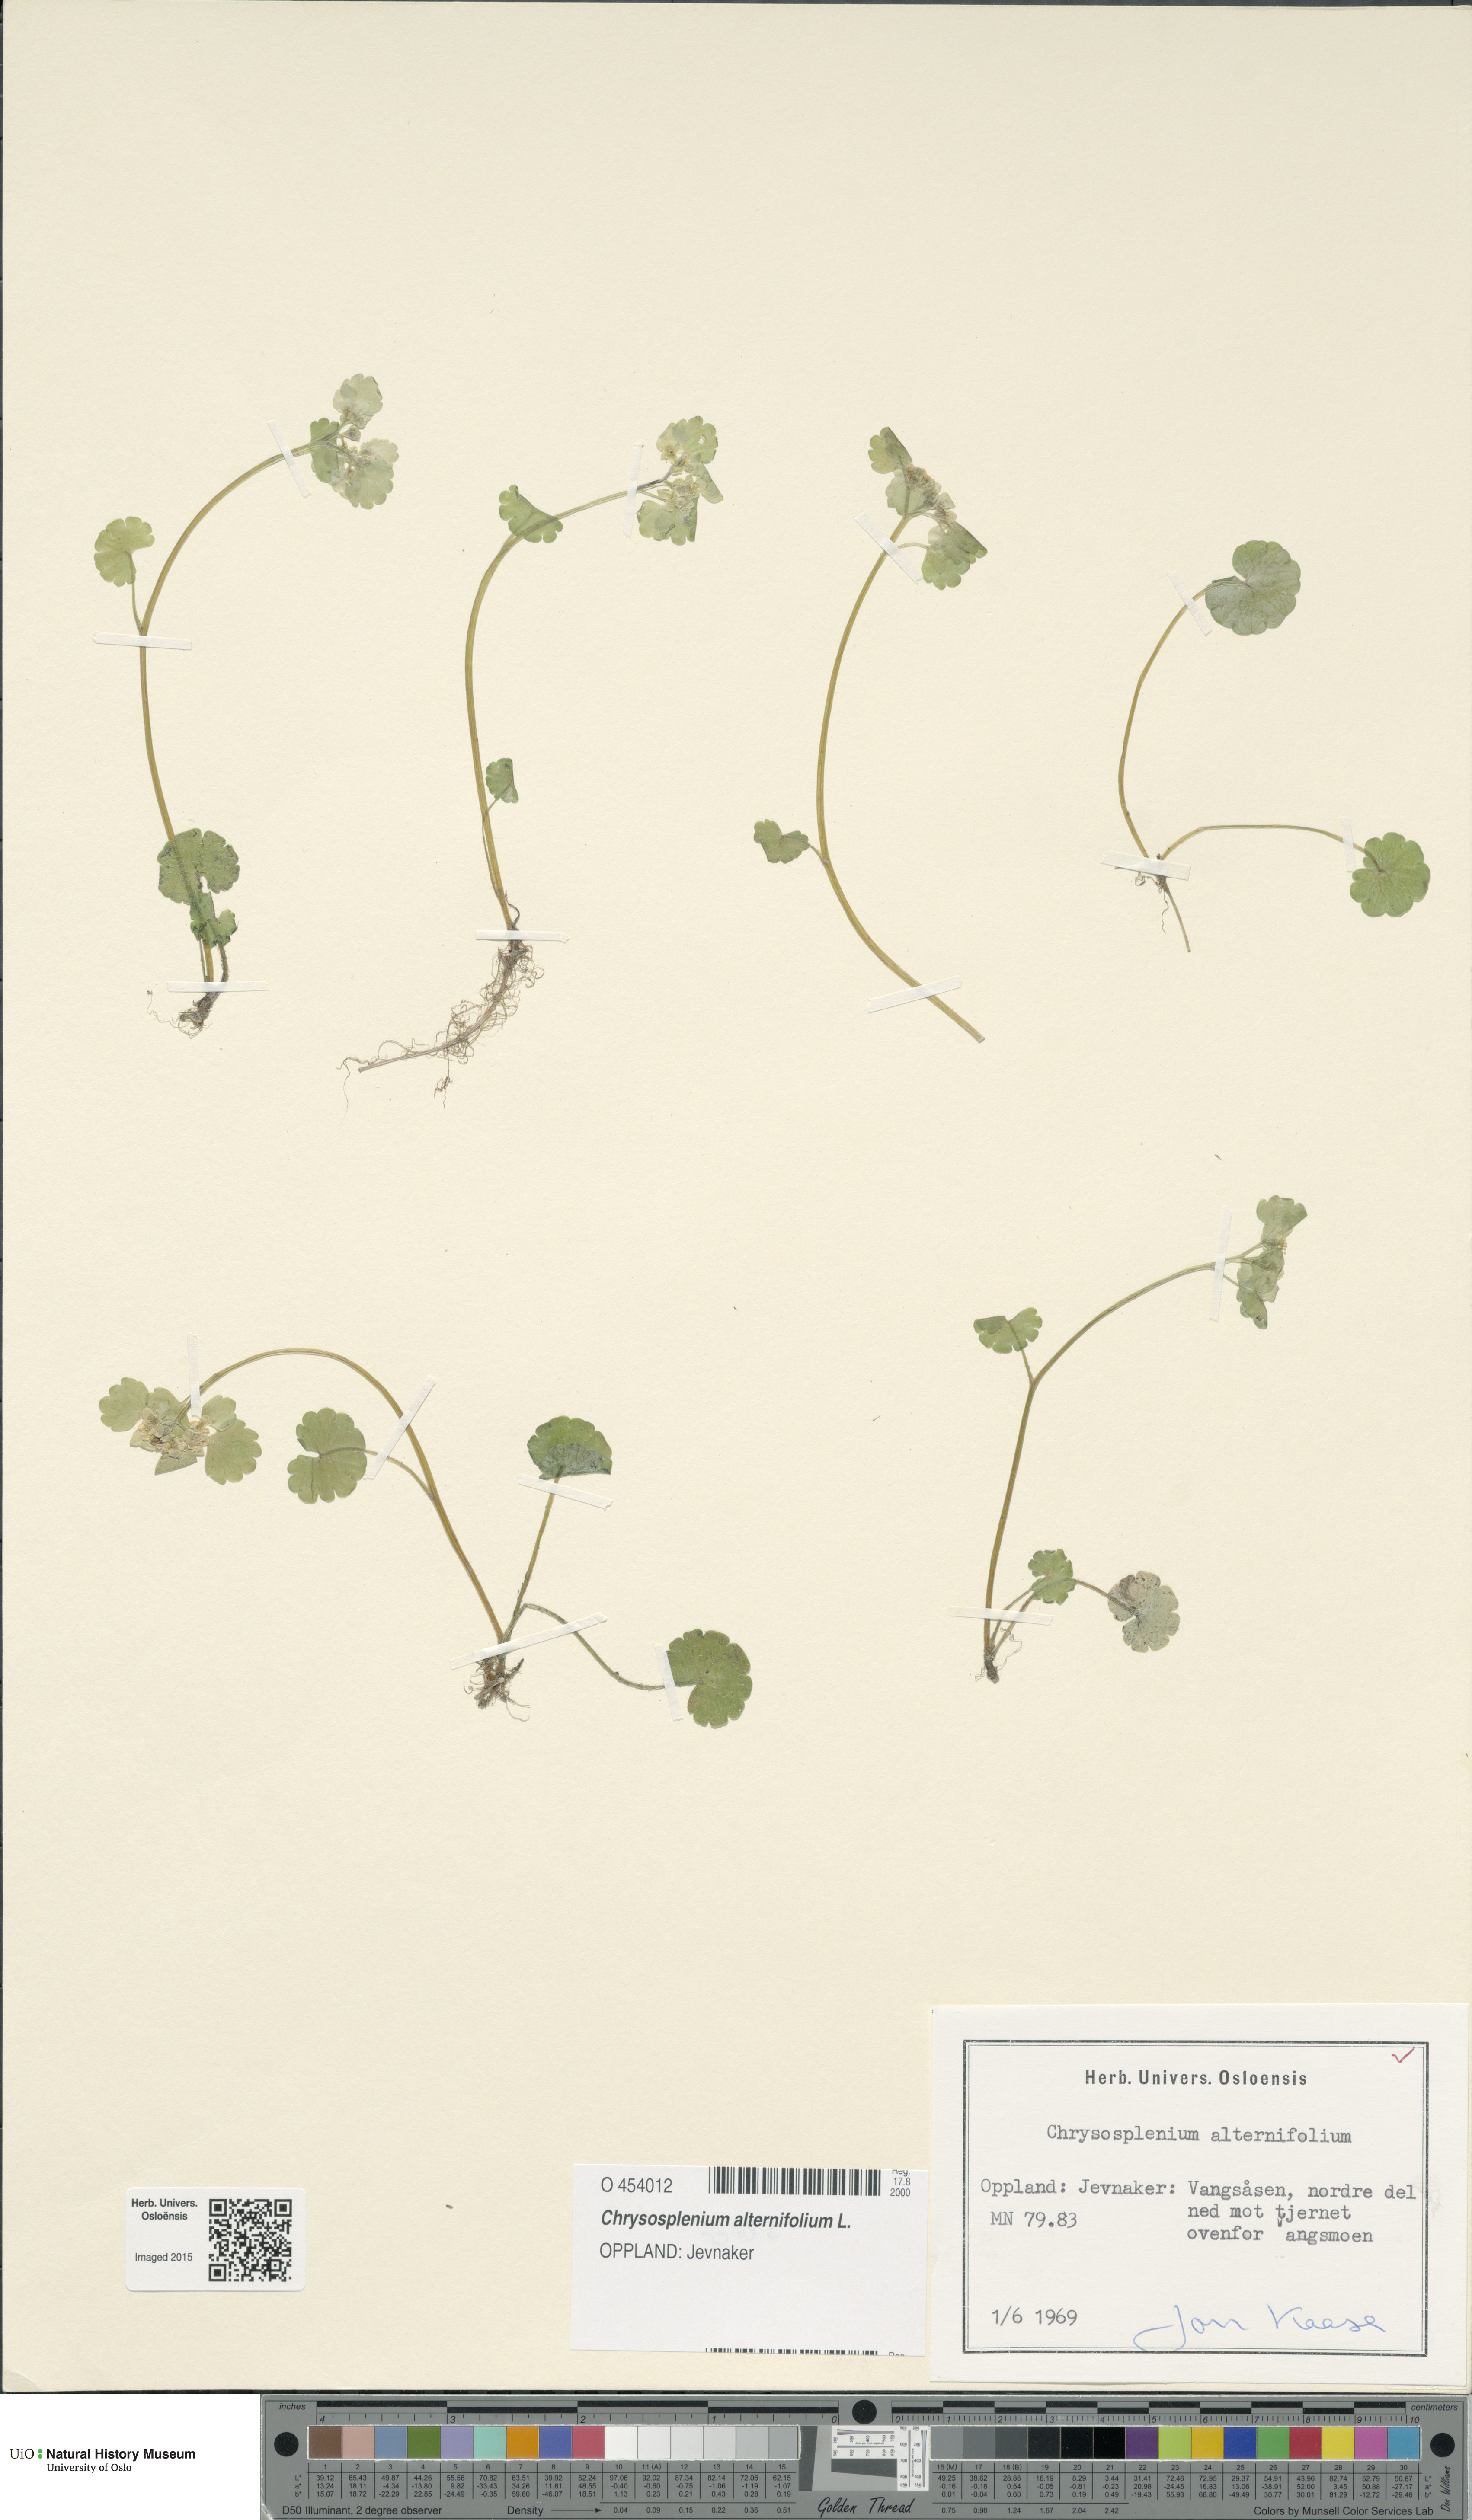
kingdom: Plantae
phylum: Tracheophyta
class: Magnoliopsida
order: Saxifragales
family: Saxifragaceae
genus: Chrysosplenium
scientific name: Chrysosplenium alternifolium
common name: Alternate-leaved golden-saxifrage
